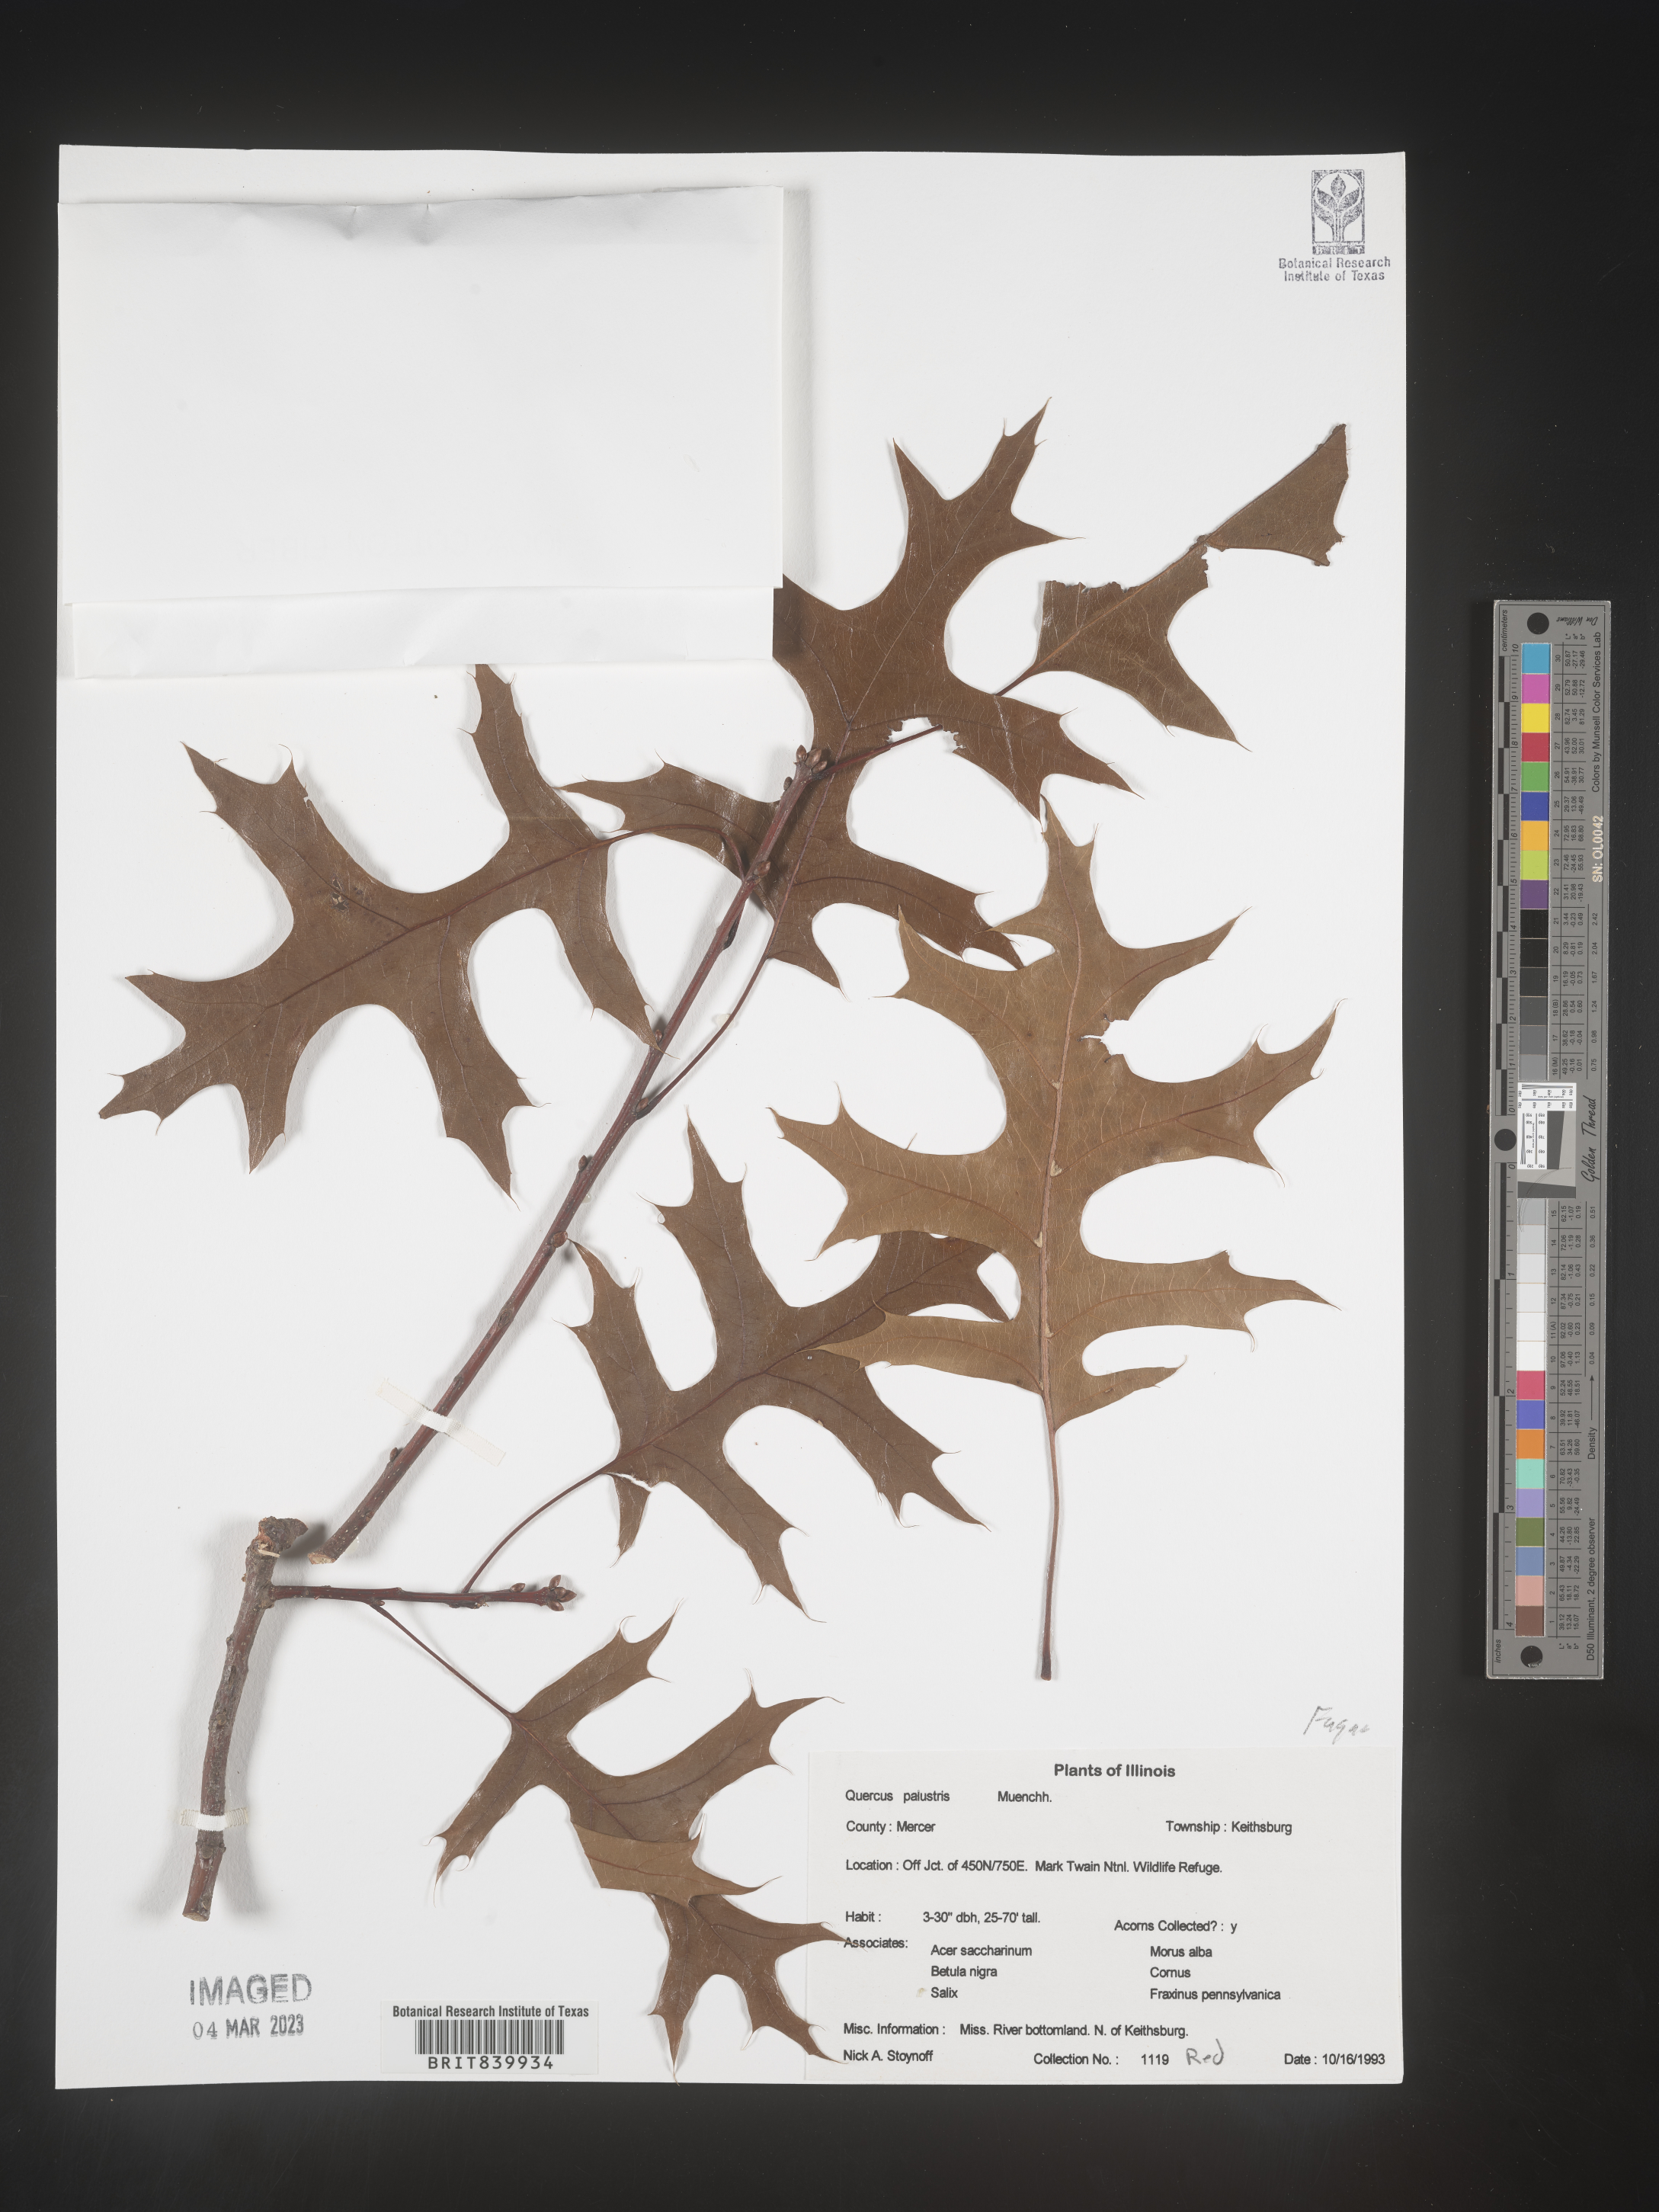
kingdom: Plantae
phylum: Tracheophyta
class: Magnoliopsida
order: Fagales
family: Fagaceae
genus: Quercus
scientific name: Quercus palustris
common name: Pin oak
